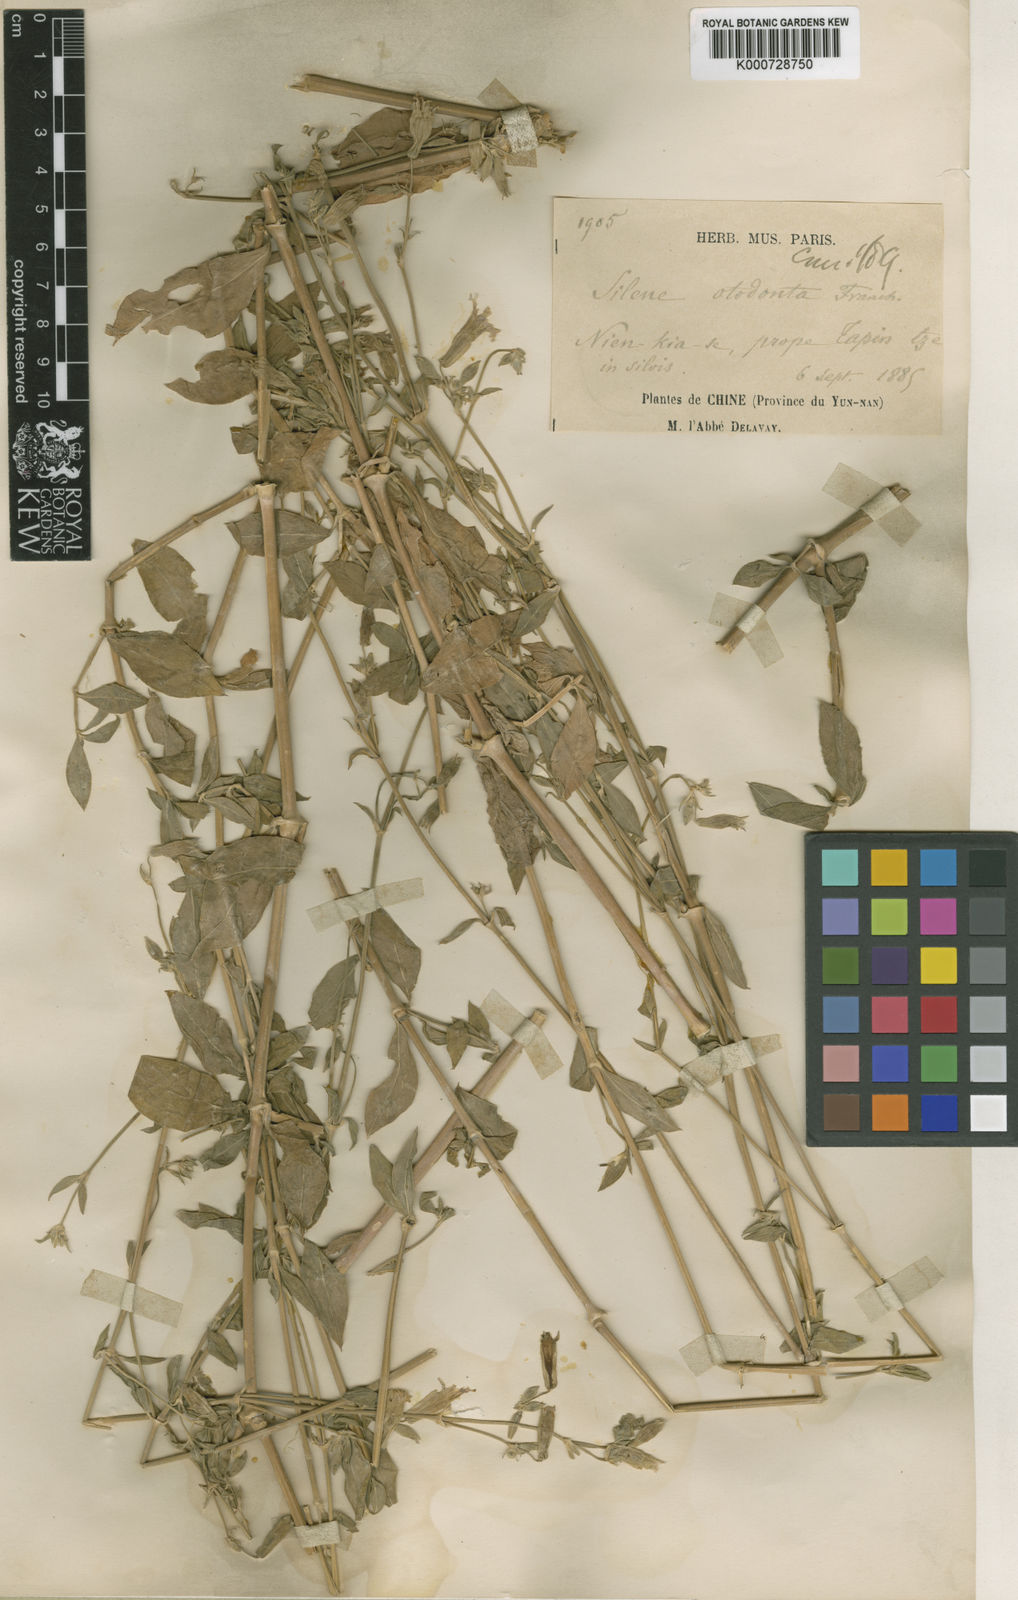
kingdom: Plantae
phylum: Tracheophyta
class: Magnoliopsida
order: Caryophyllales
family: Caryophyllaceae
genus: Silene
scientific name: Silene otodonta
